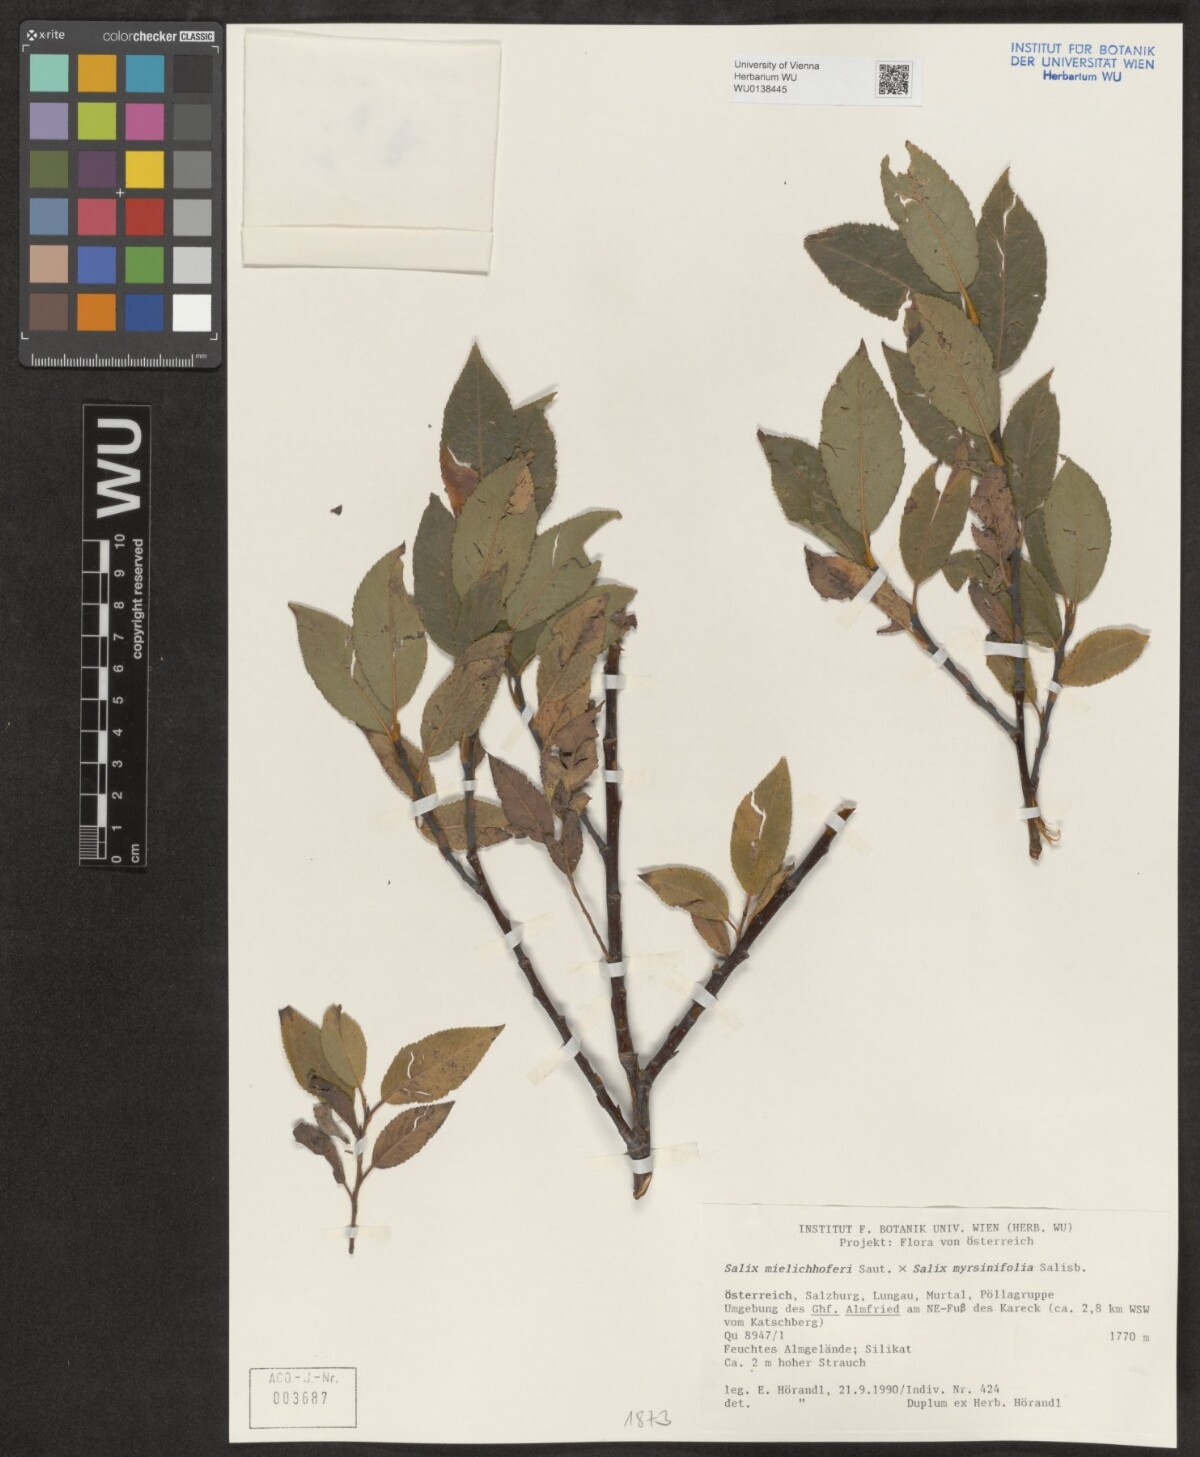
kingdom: Plantae
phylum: Tracheophyta
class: Magnoliopsida
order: Malpighiales
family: Salicaceae
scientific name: Salicaceae
